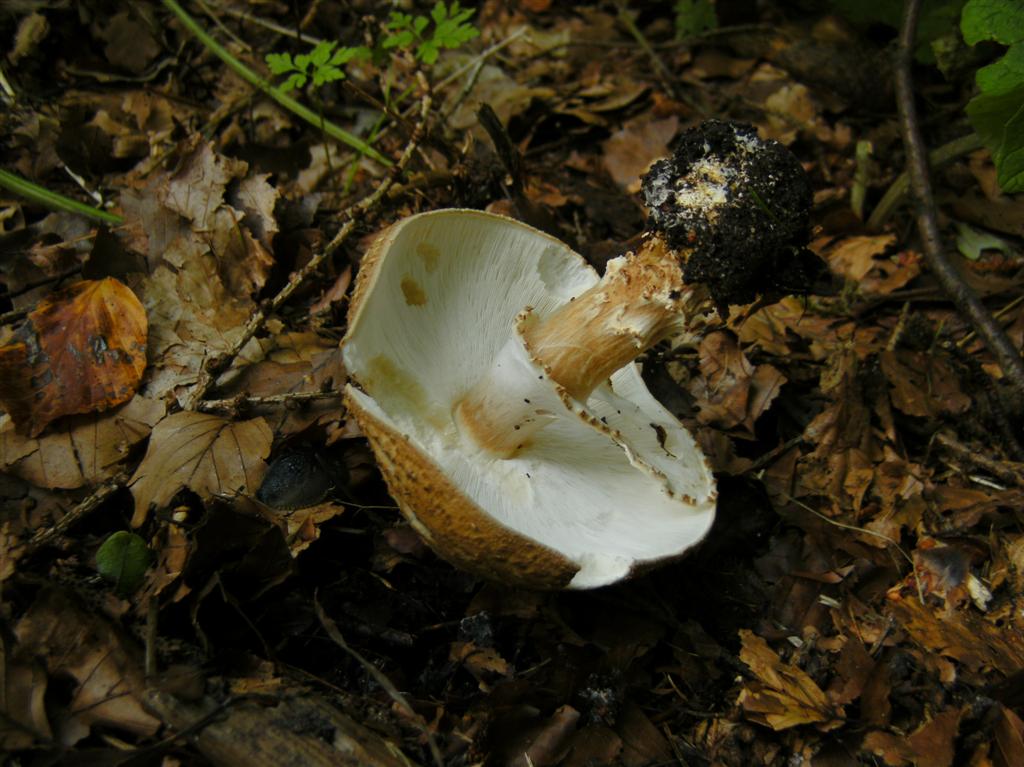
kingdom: Fungi
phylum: Basidiomycota
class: Agaricomycetes
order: Agaricales
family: Agaricaceae
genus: Echinoderma
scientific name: Echinoderma asperum
